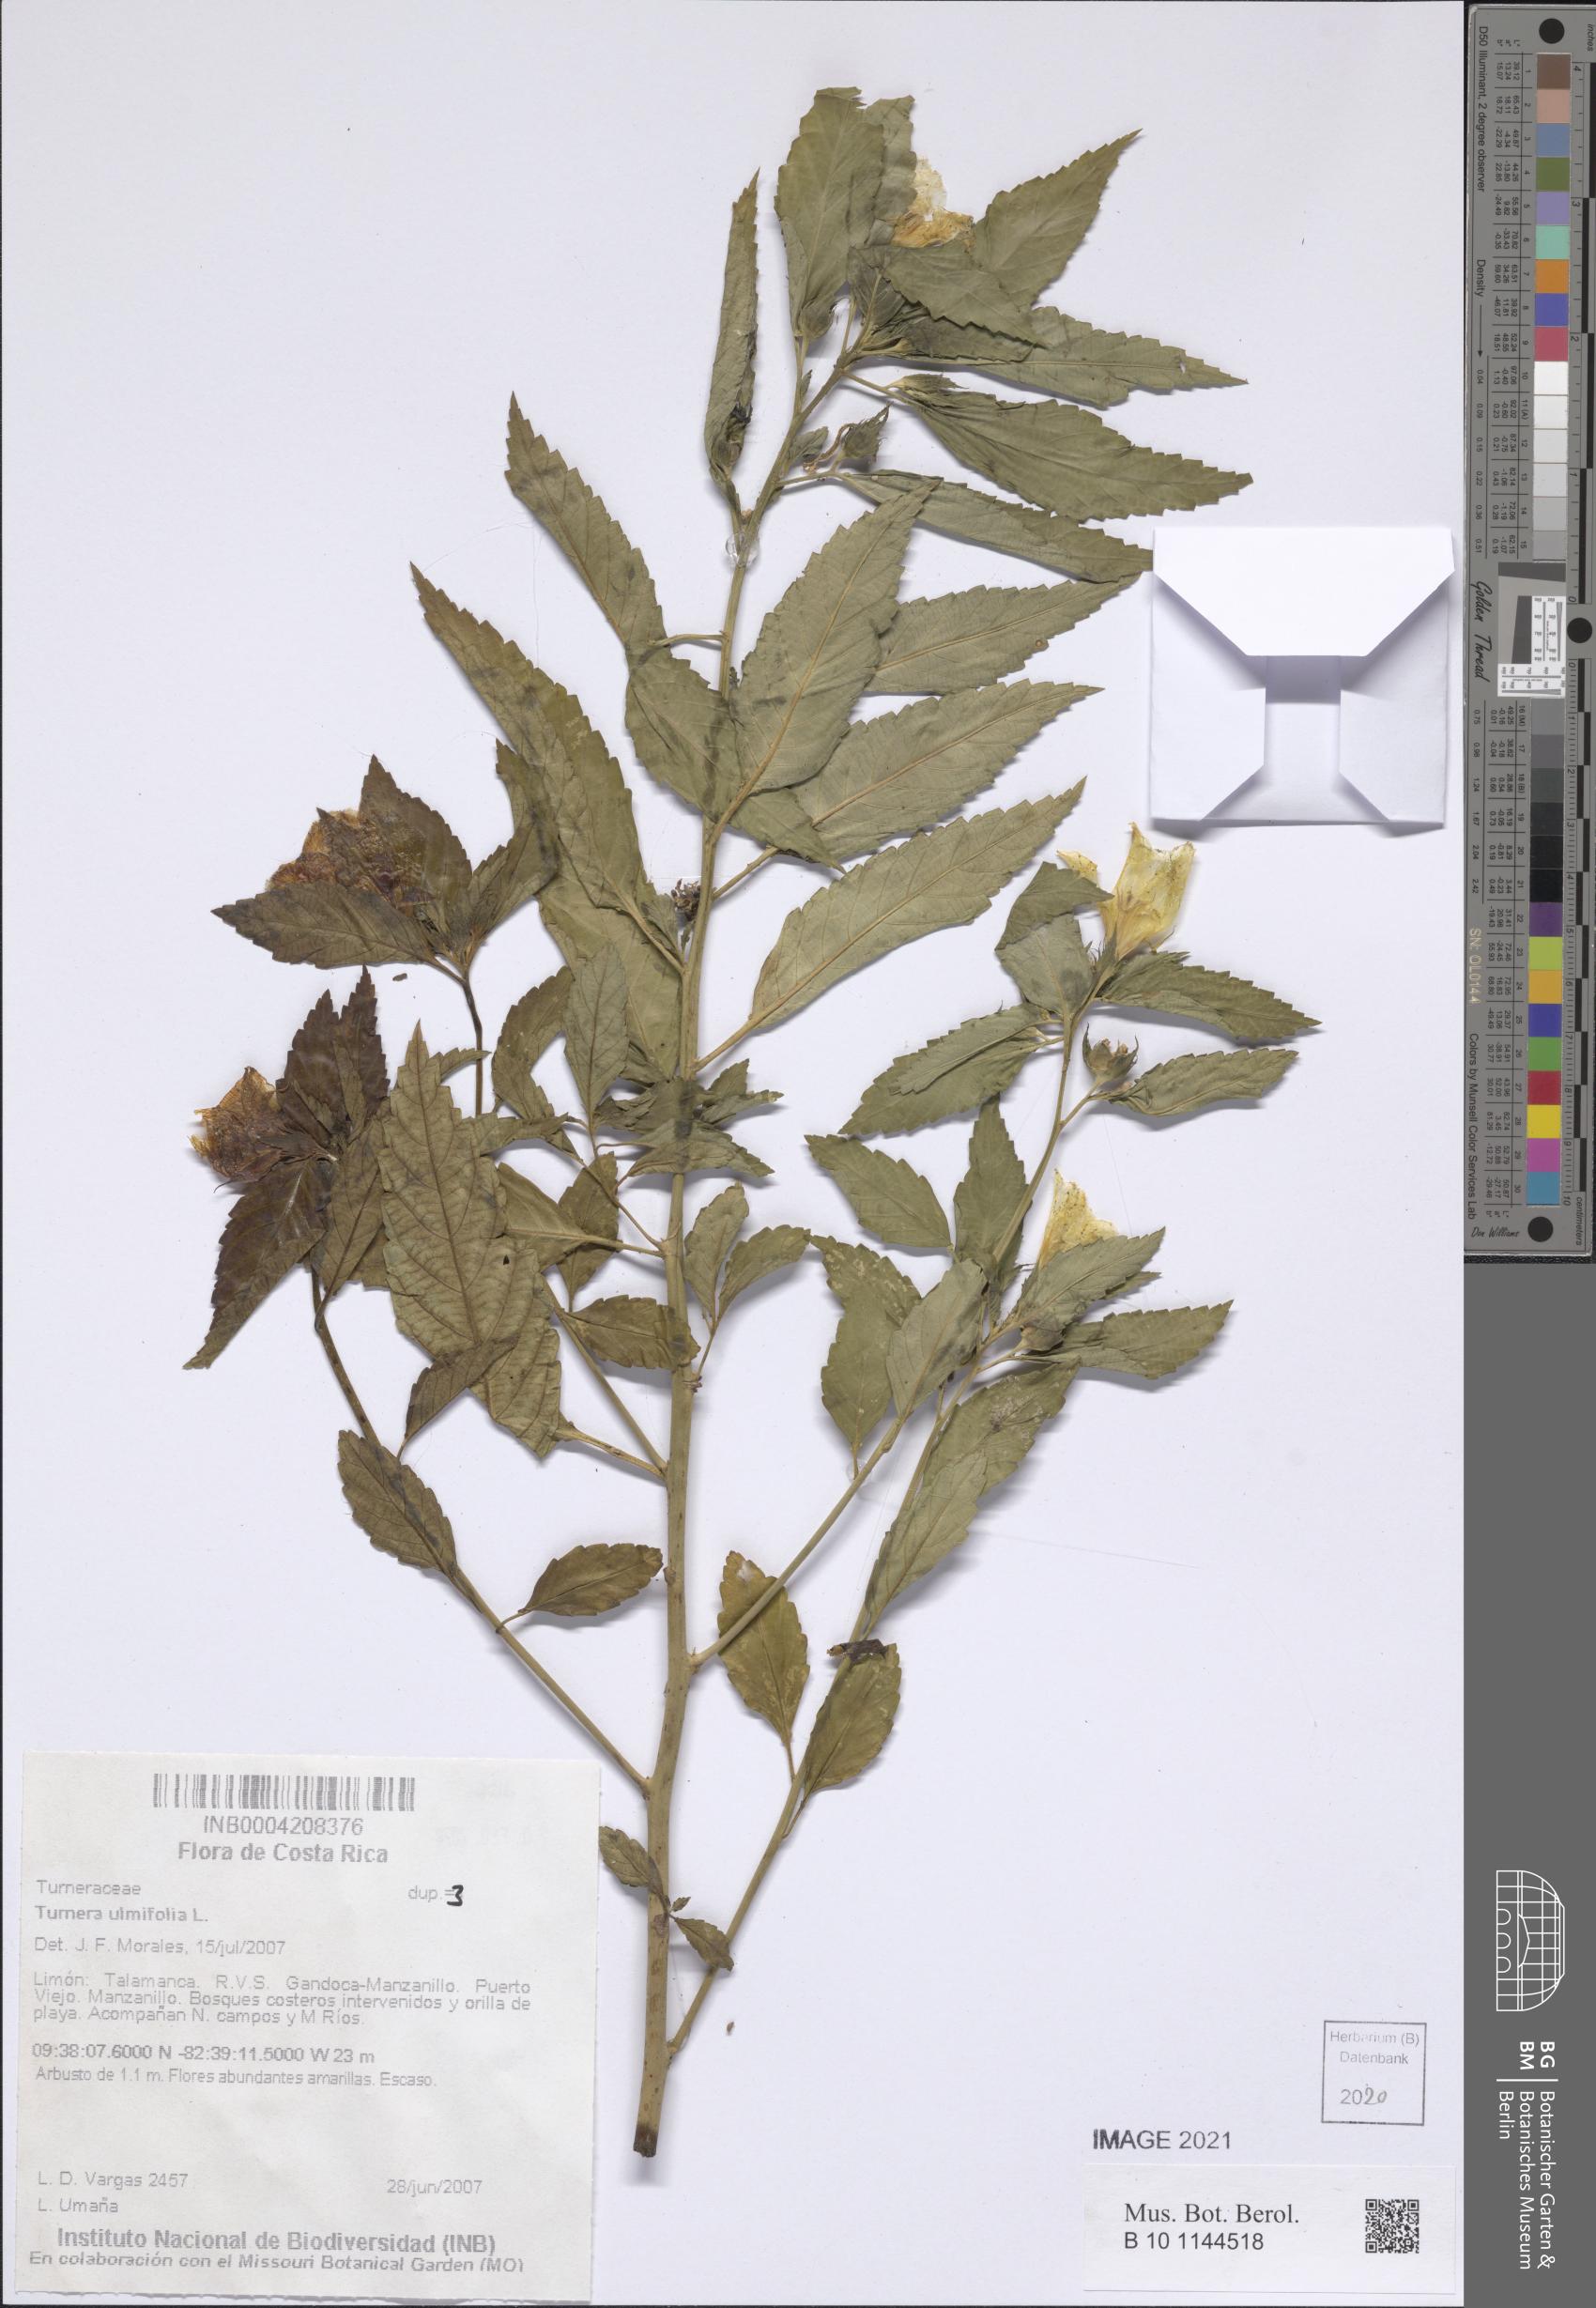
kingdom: Plantae
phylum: Tracheophyta
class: Magnoliopsida
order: Malpighiales
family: Turneraceae
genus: Turnera
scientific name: Turnera ulmifolia
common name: Ramgoat dashalong
